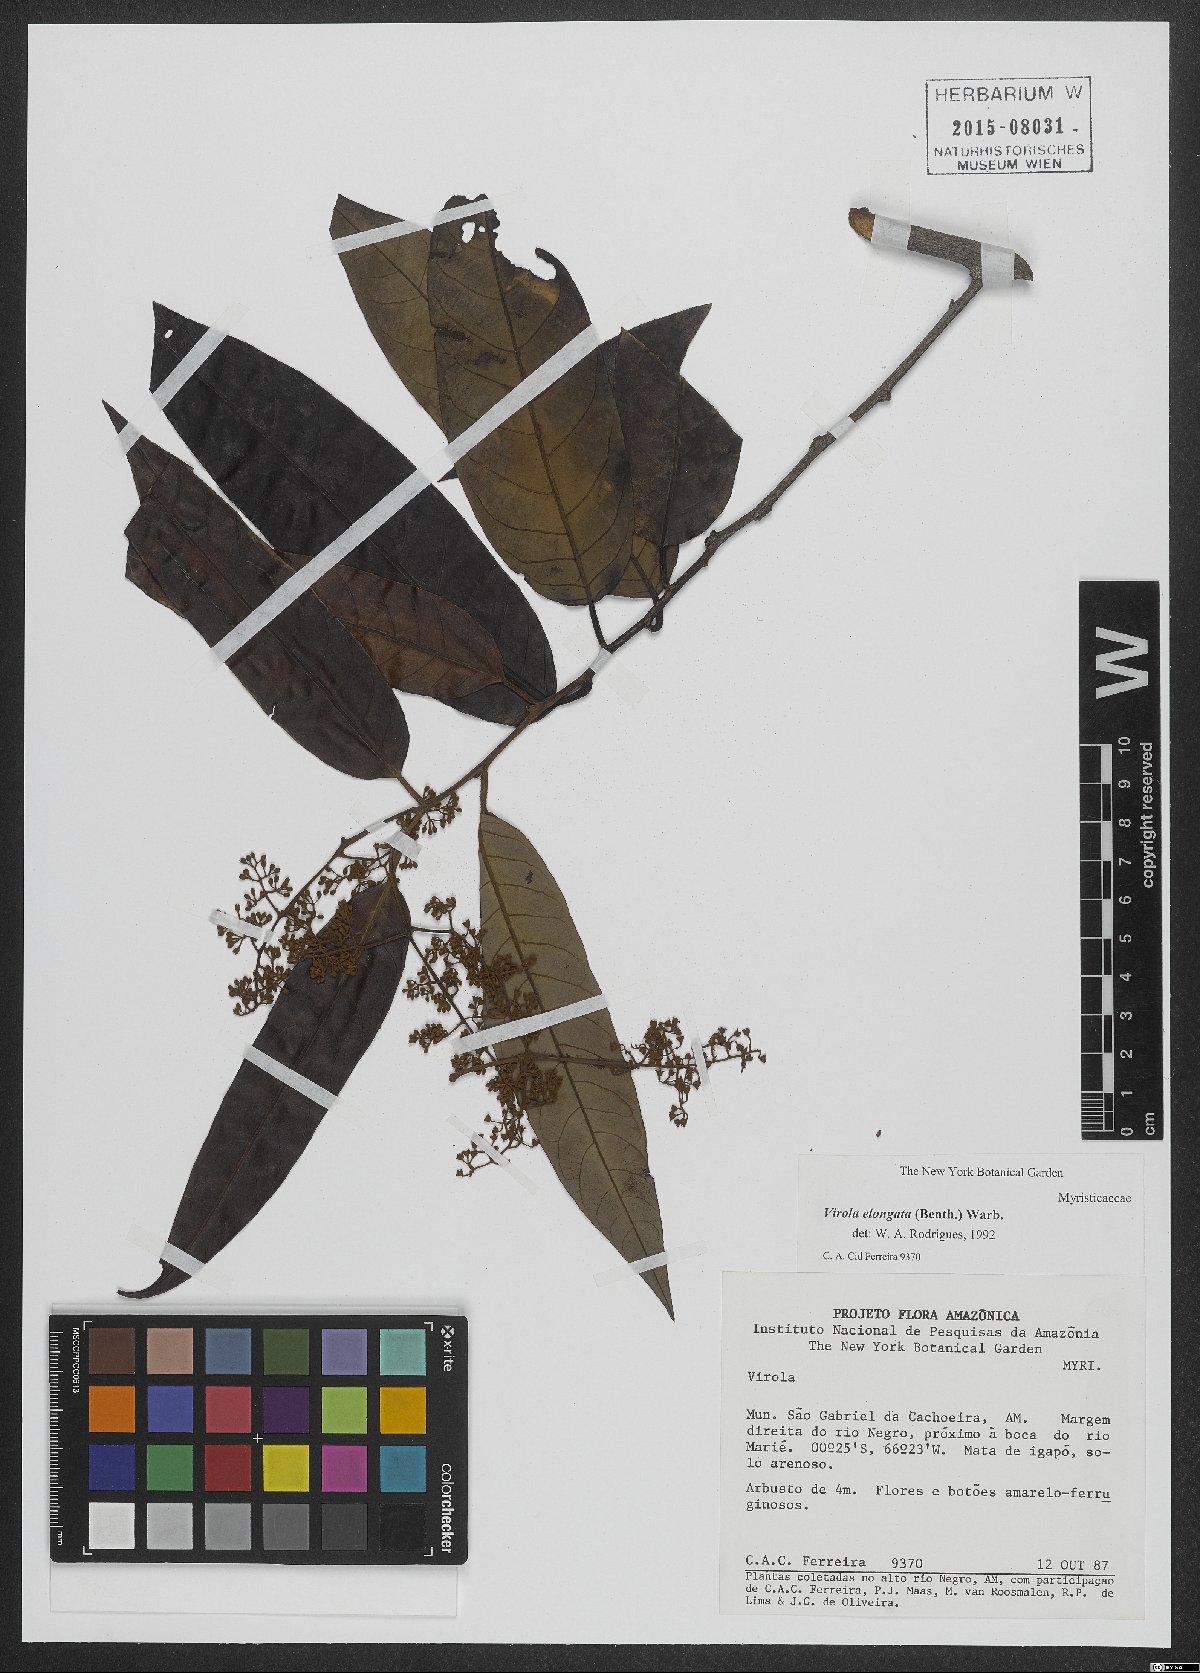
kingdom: Plantae
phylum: Tracheophyta
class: Magnoliopsida
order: Magnoliales
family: Myristicaceae
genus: Virola
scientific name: Virola elongata
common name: Sacred virola
